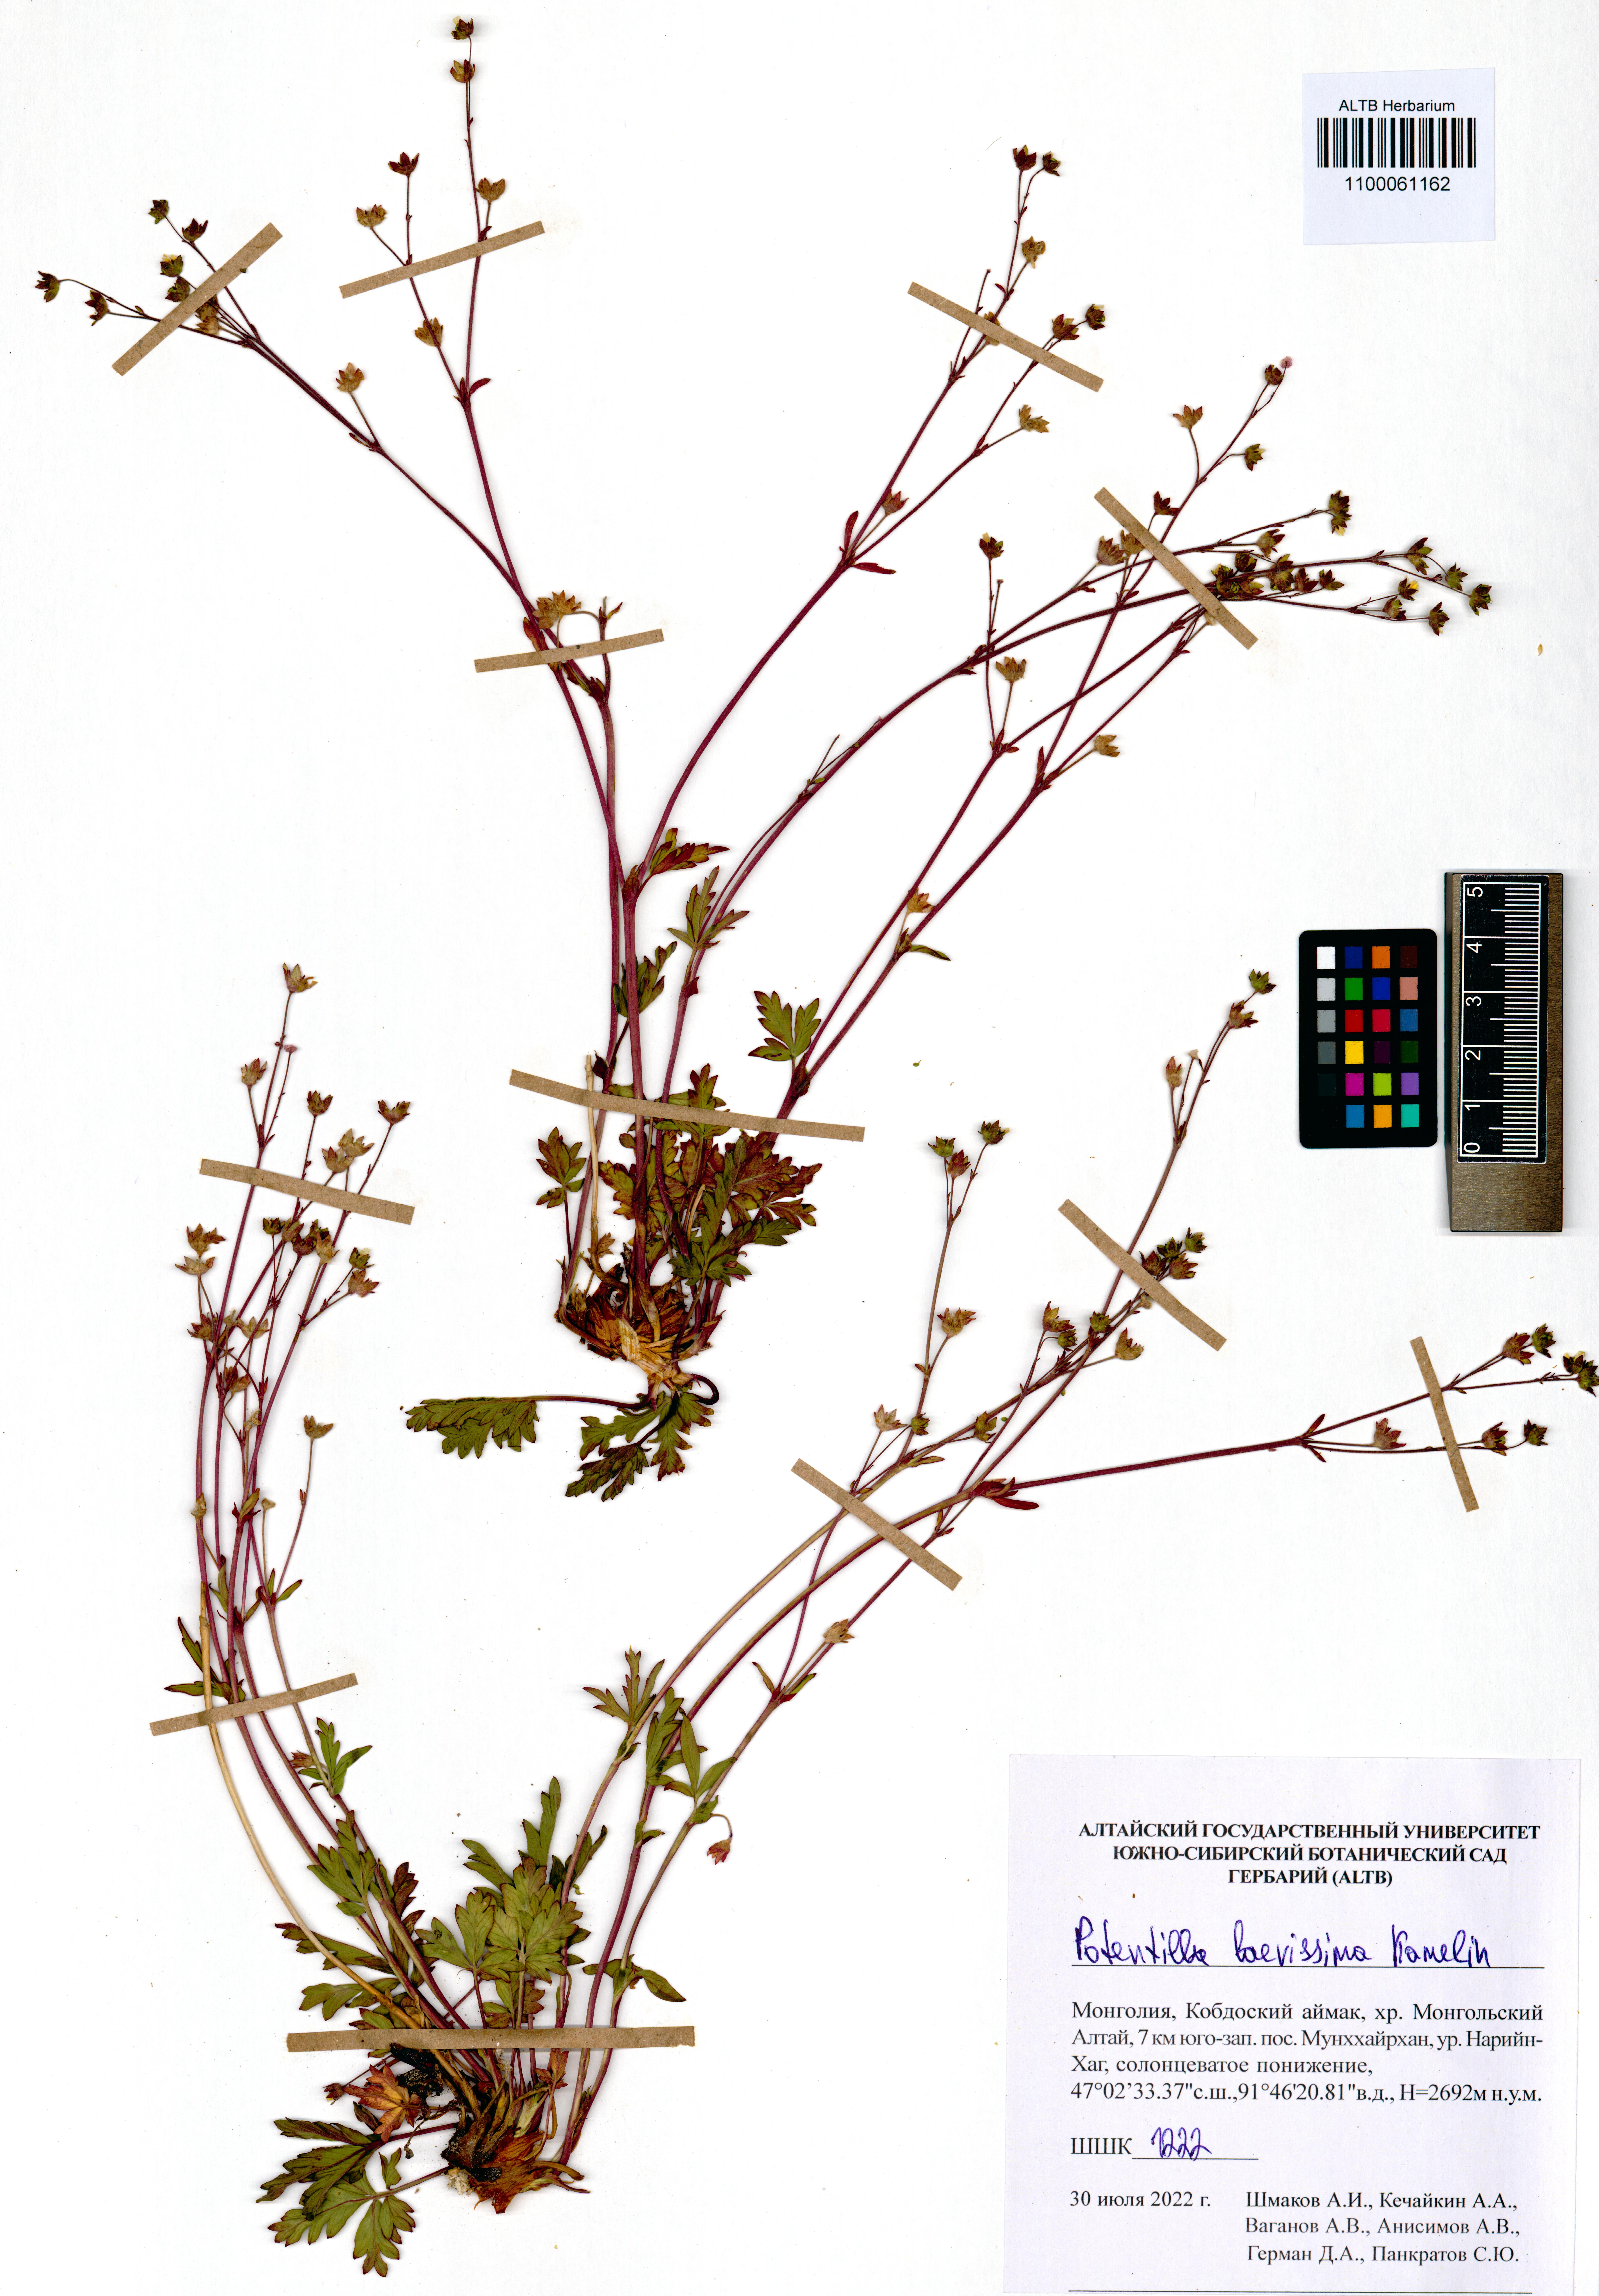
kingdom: Plantae
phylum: Tracheophyta
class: Magnoliopsida
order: Rosales
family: Rosaceae
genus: Potentilla
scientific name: Potentilla laevissima
